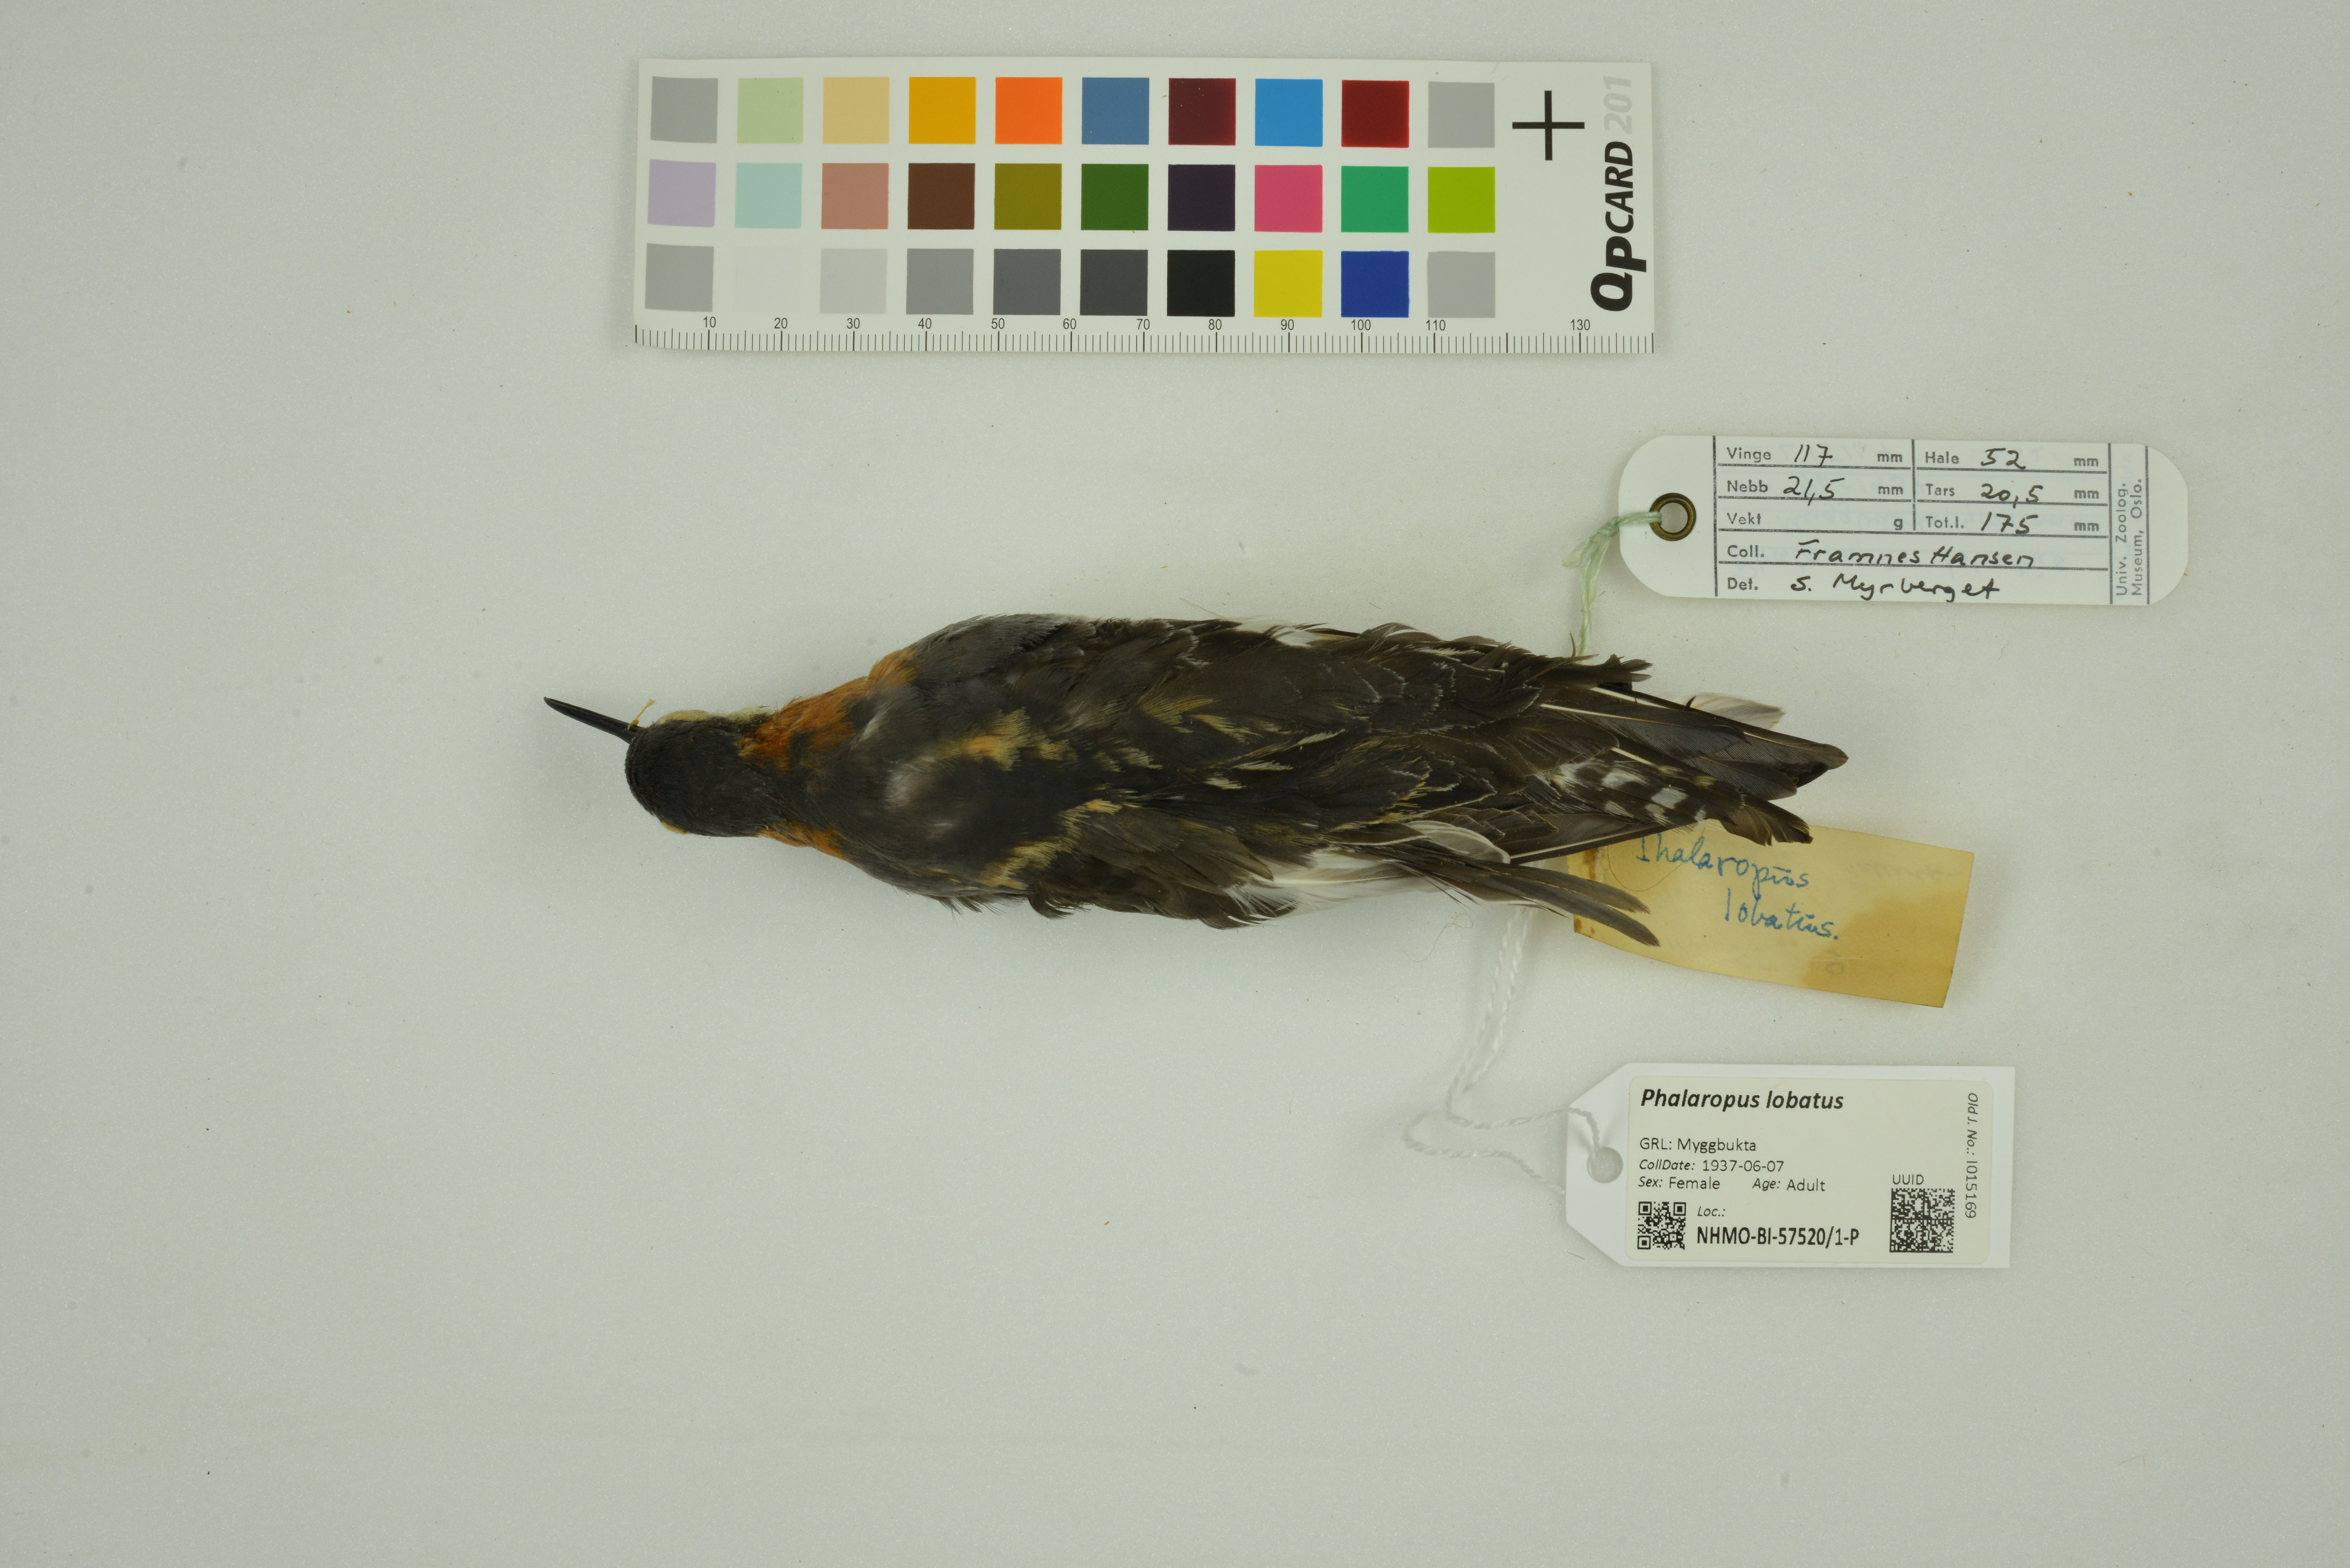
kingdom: Animalia
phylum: Chordata
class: Aves
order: Charadriiformes
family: Scolopacidae
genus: Phalaropus
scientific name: Phalaropus lobatus
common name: Red-necked phalarope
